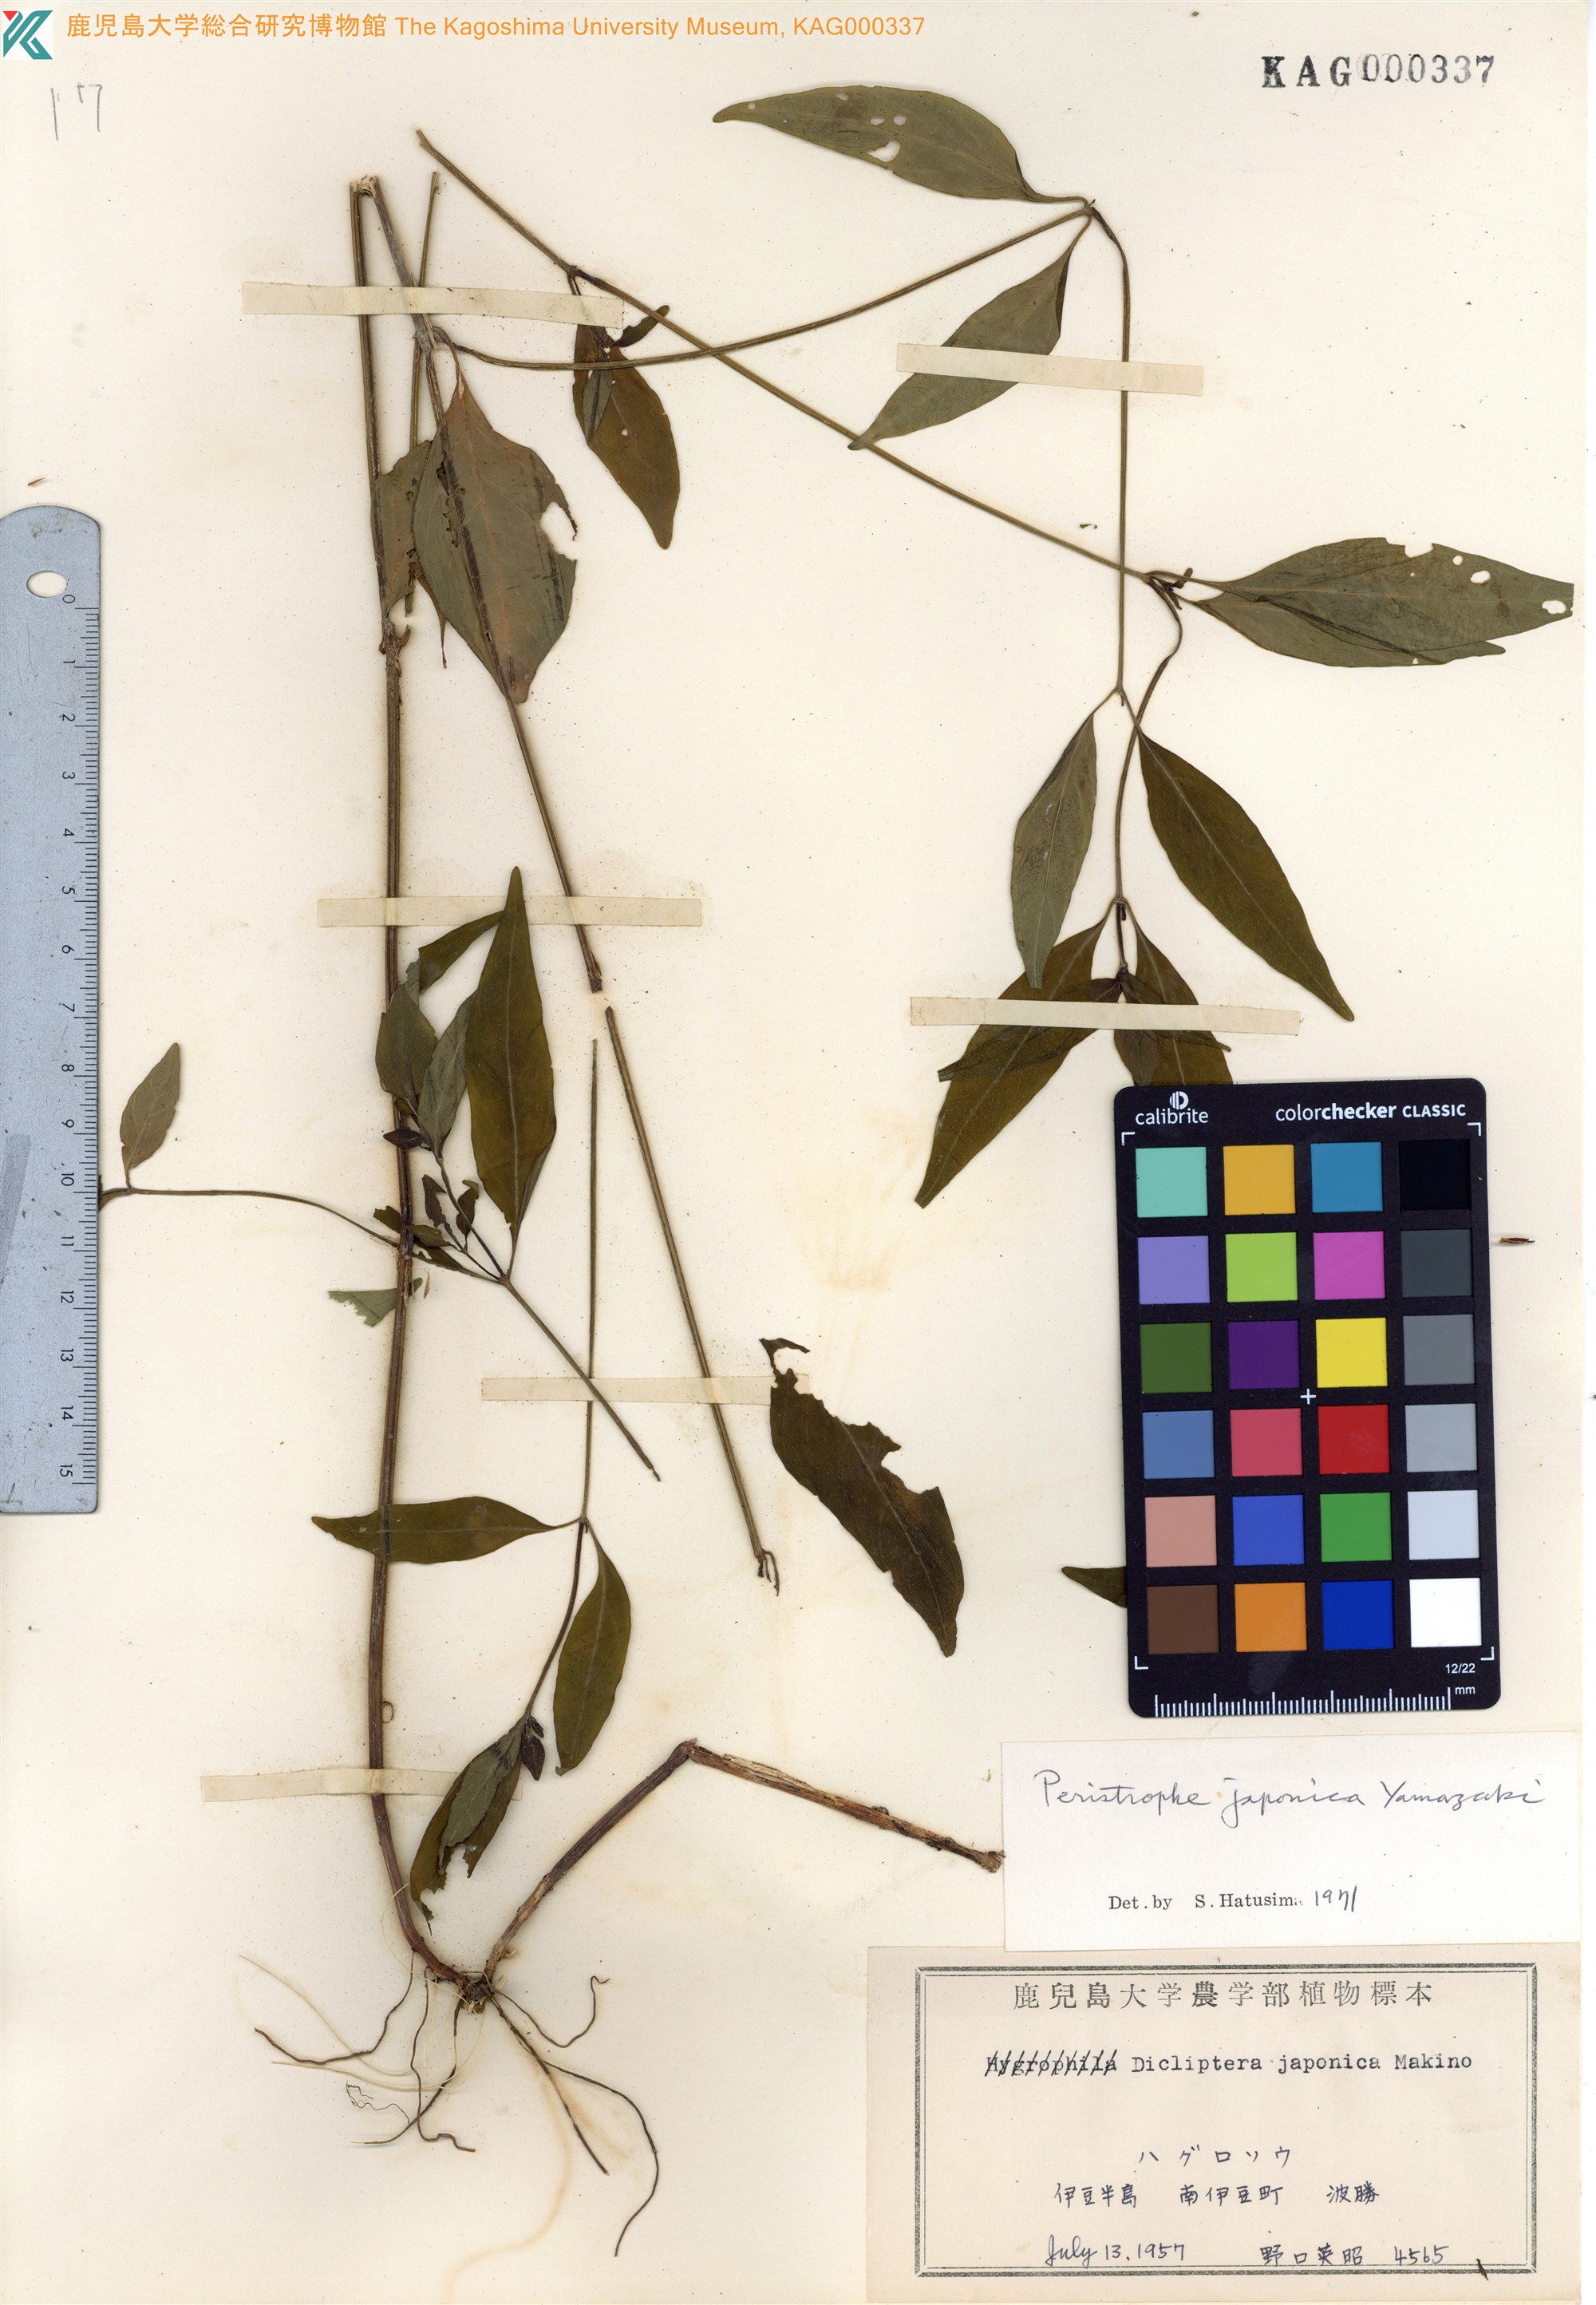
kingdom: Plantae
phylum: Tracheophyta
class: Magnoliopsida
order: Lamiales
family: Acanthaceae
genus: Dicliptera
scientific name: Dicliptera japonica
